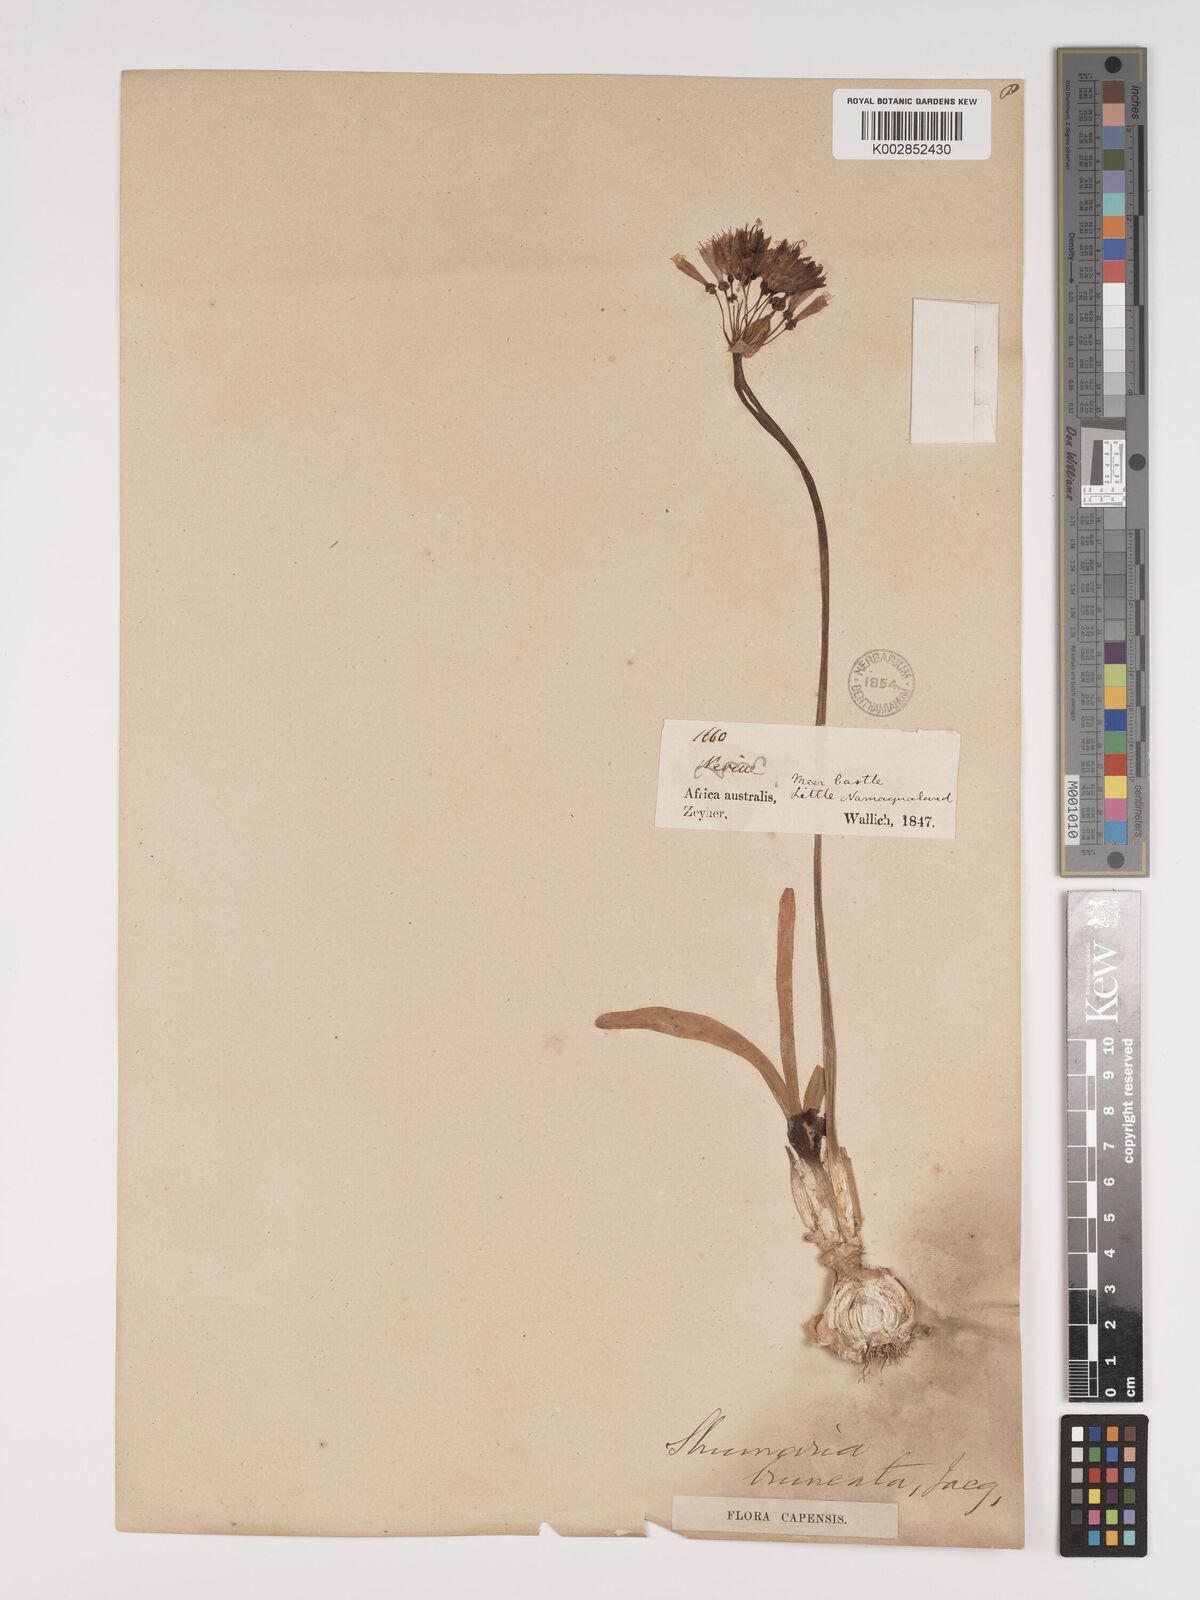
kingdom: Plantae
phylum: Tracheophyta
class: Liliopsida
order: Asparagales
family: Amaryllidaceae
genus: Strumaria
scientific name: Strumaria truncata
